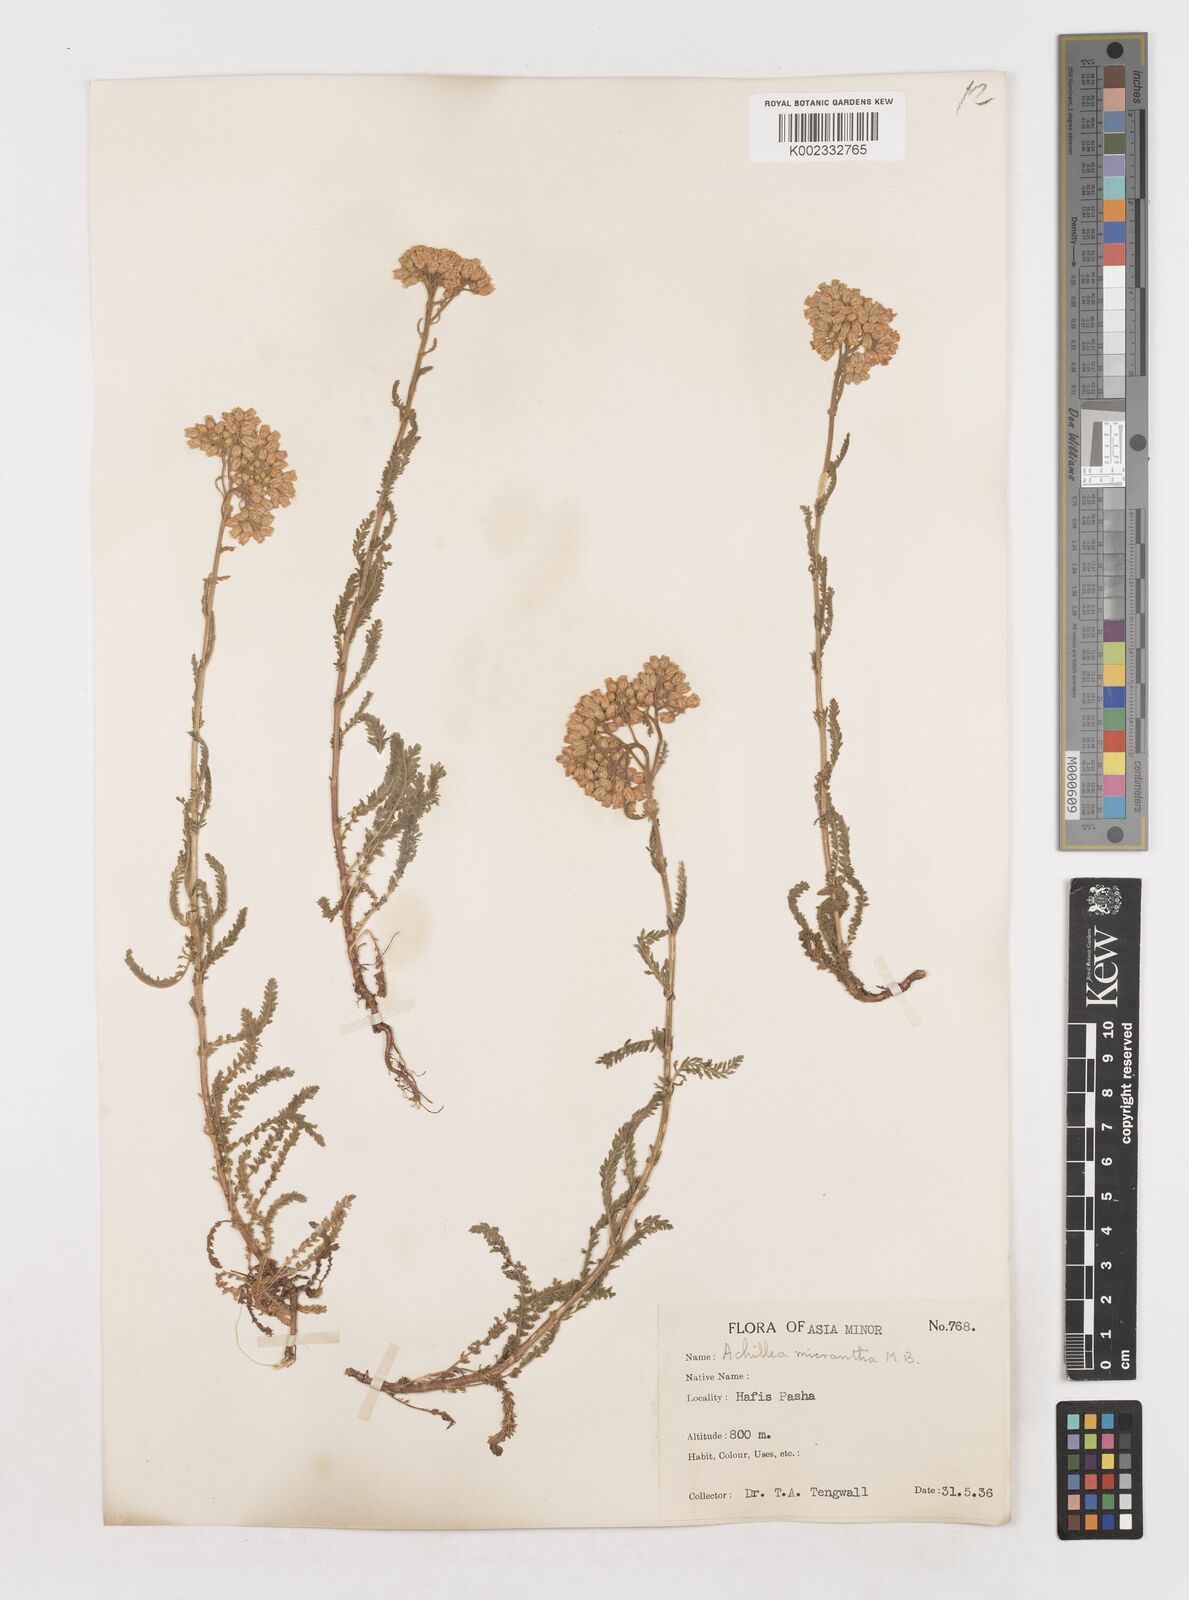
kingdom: Plantae
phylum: Tracheophyta
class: Magnoliopsida
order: Asterales
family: Asteraceae
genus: Achillea
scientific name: Achillea micrantha
